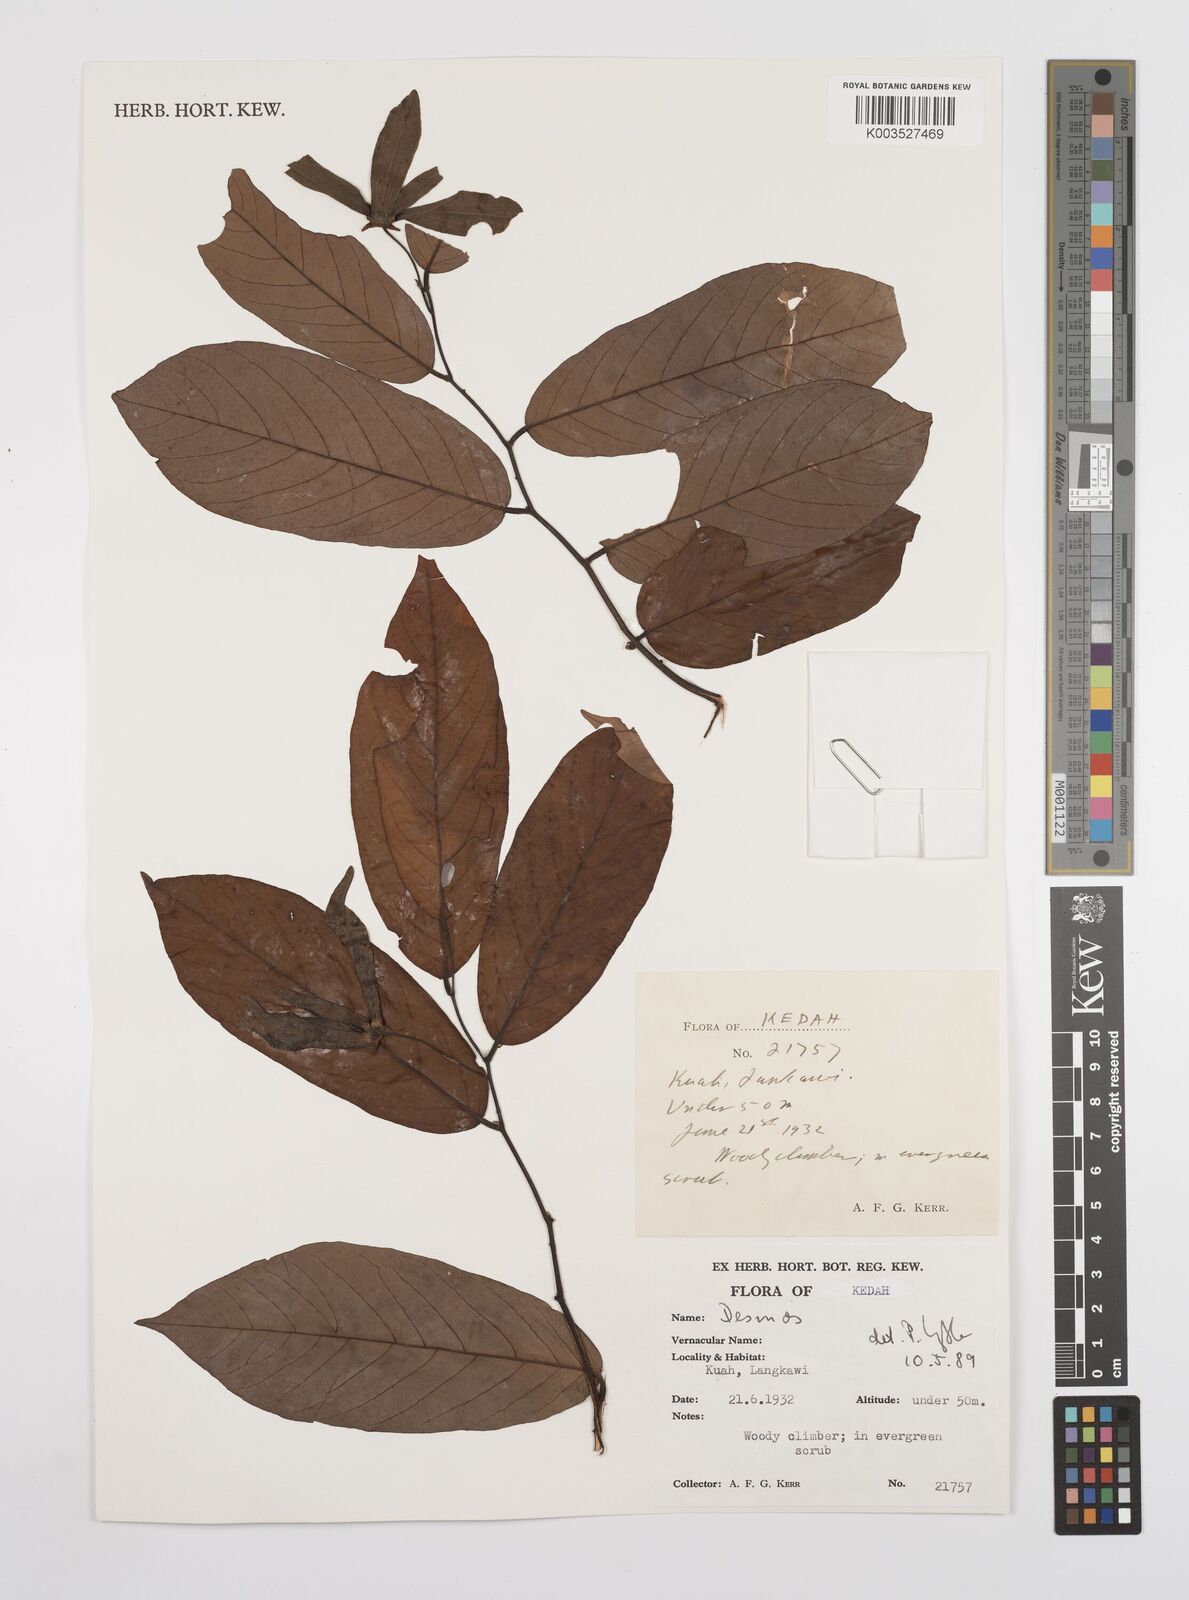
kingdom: Plantae
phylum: Tracheophyta
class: Magnoliopsida
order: Magnoliales
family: Annonaceae
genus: Desmos
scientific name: Desmos
